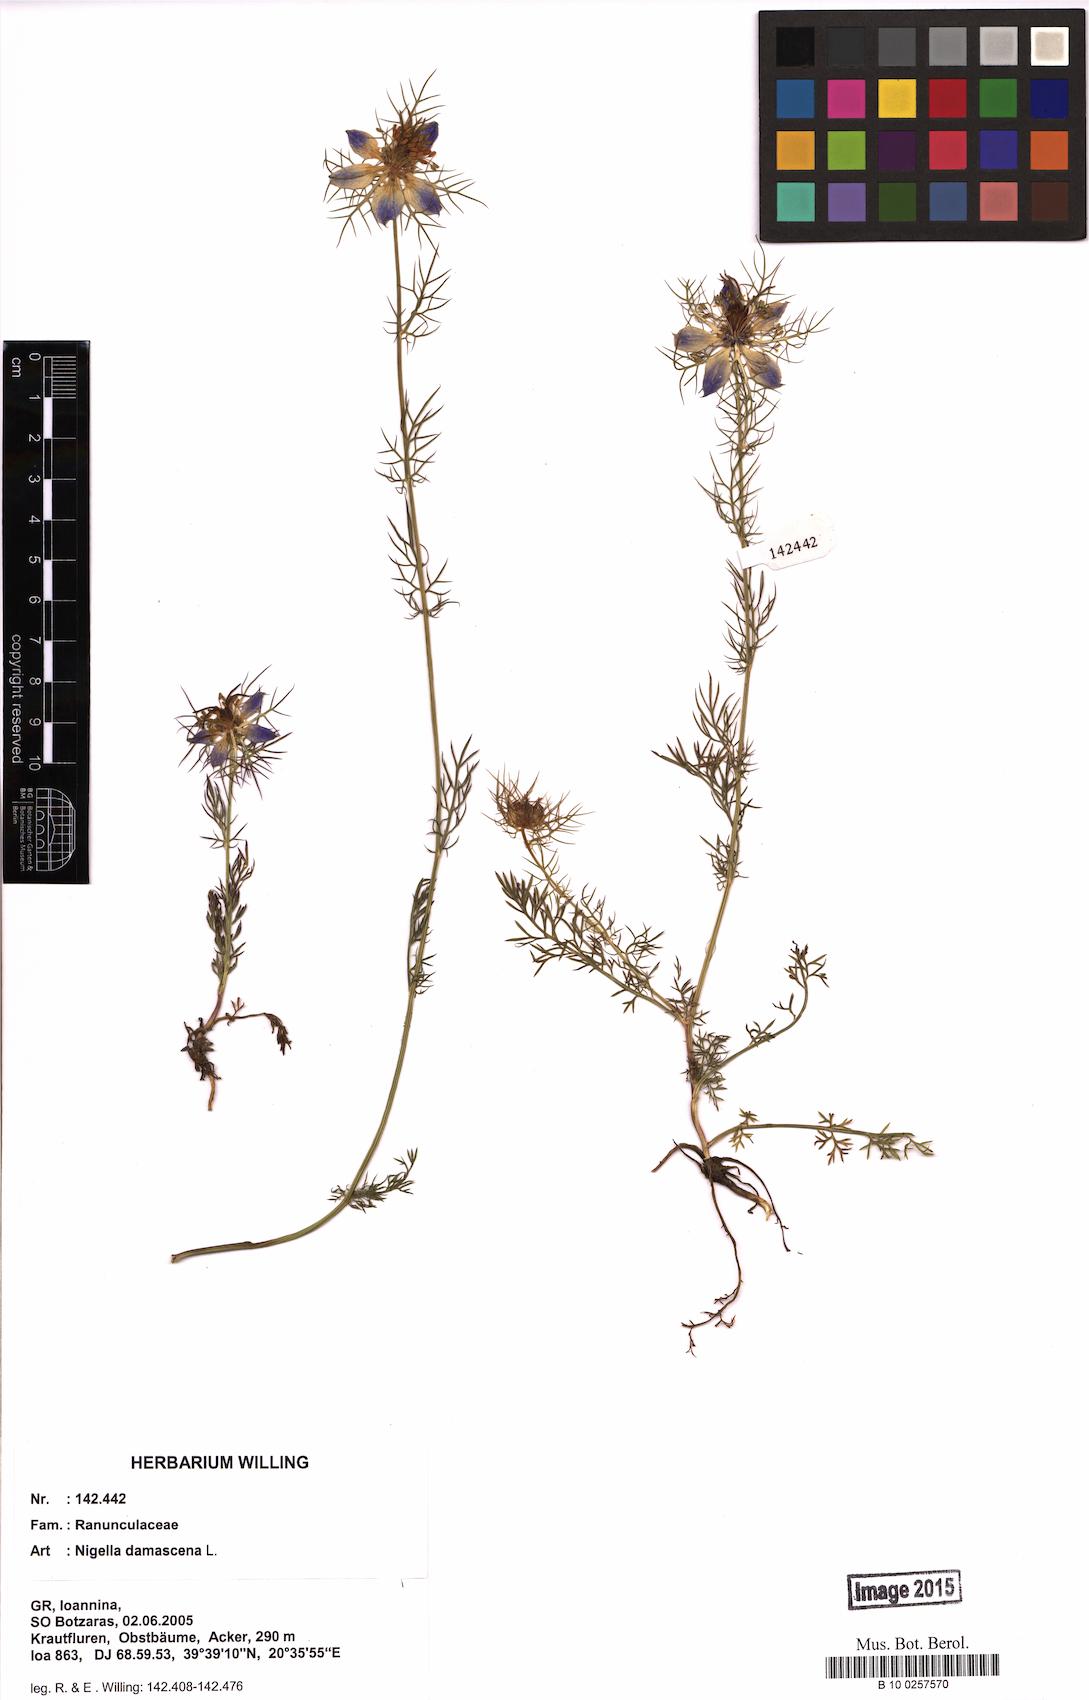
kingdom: Plantae
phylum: Tracheophyta
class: Magnoliopsida
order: Ranunculales
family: Ranunculaceae
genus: Nigella
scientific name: Nigella damascena
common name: Love-in-a-mist
